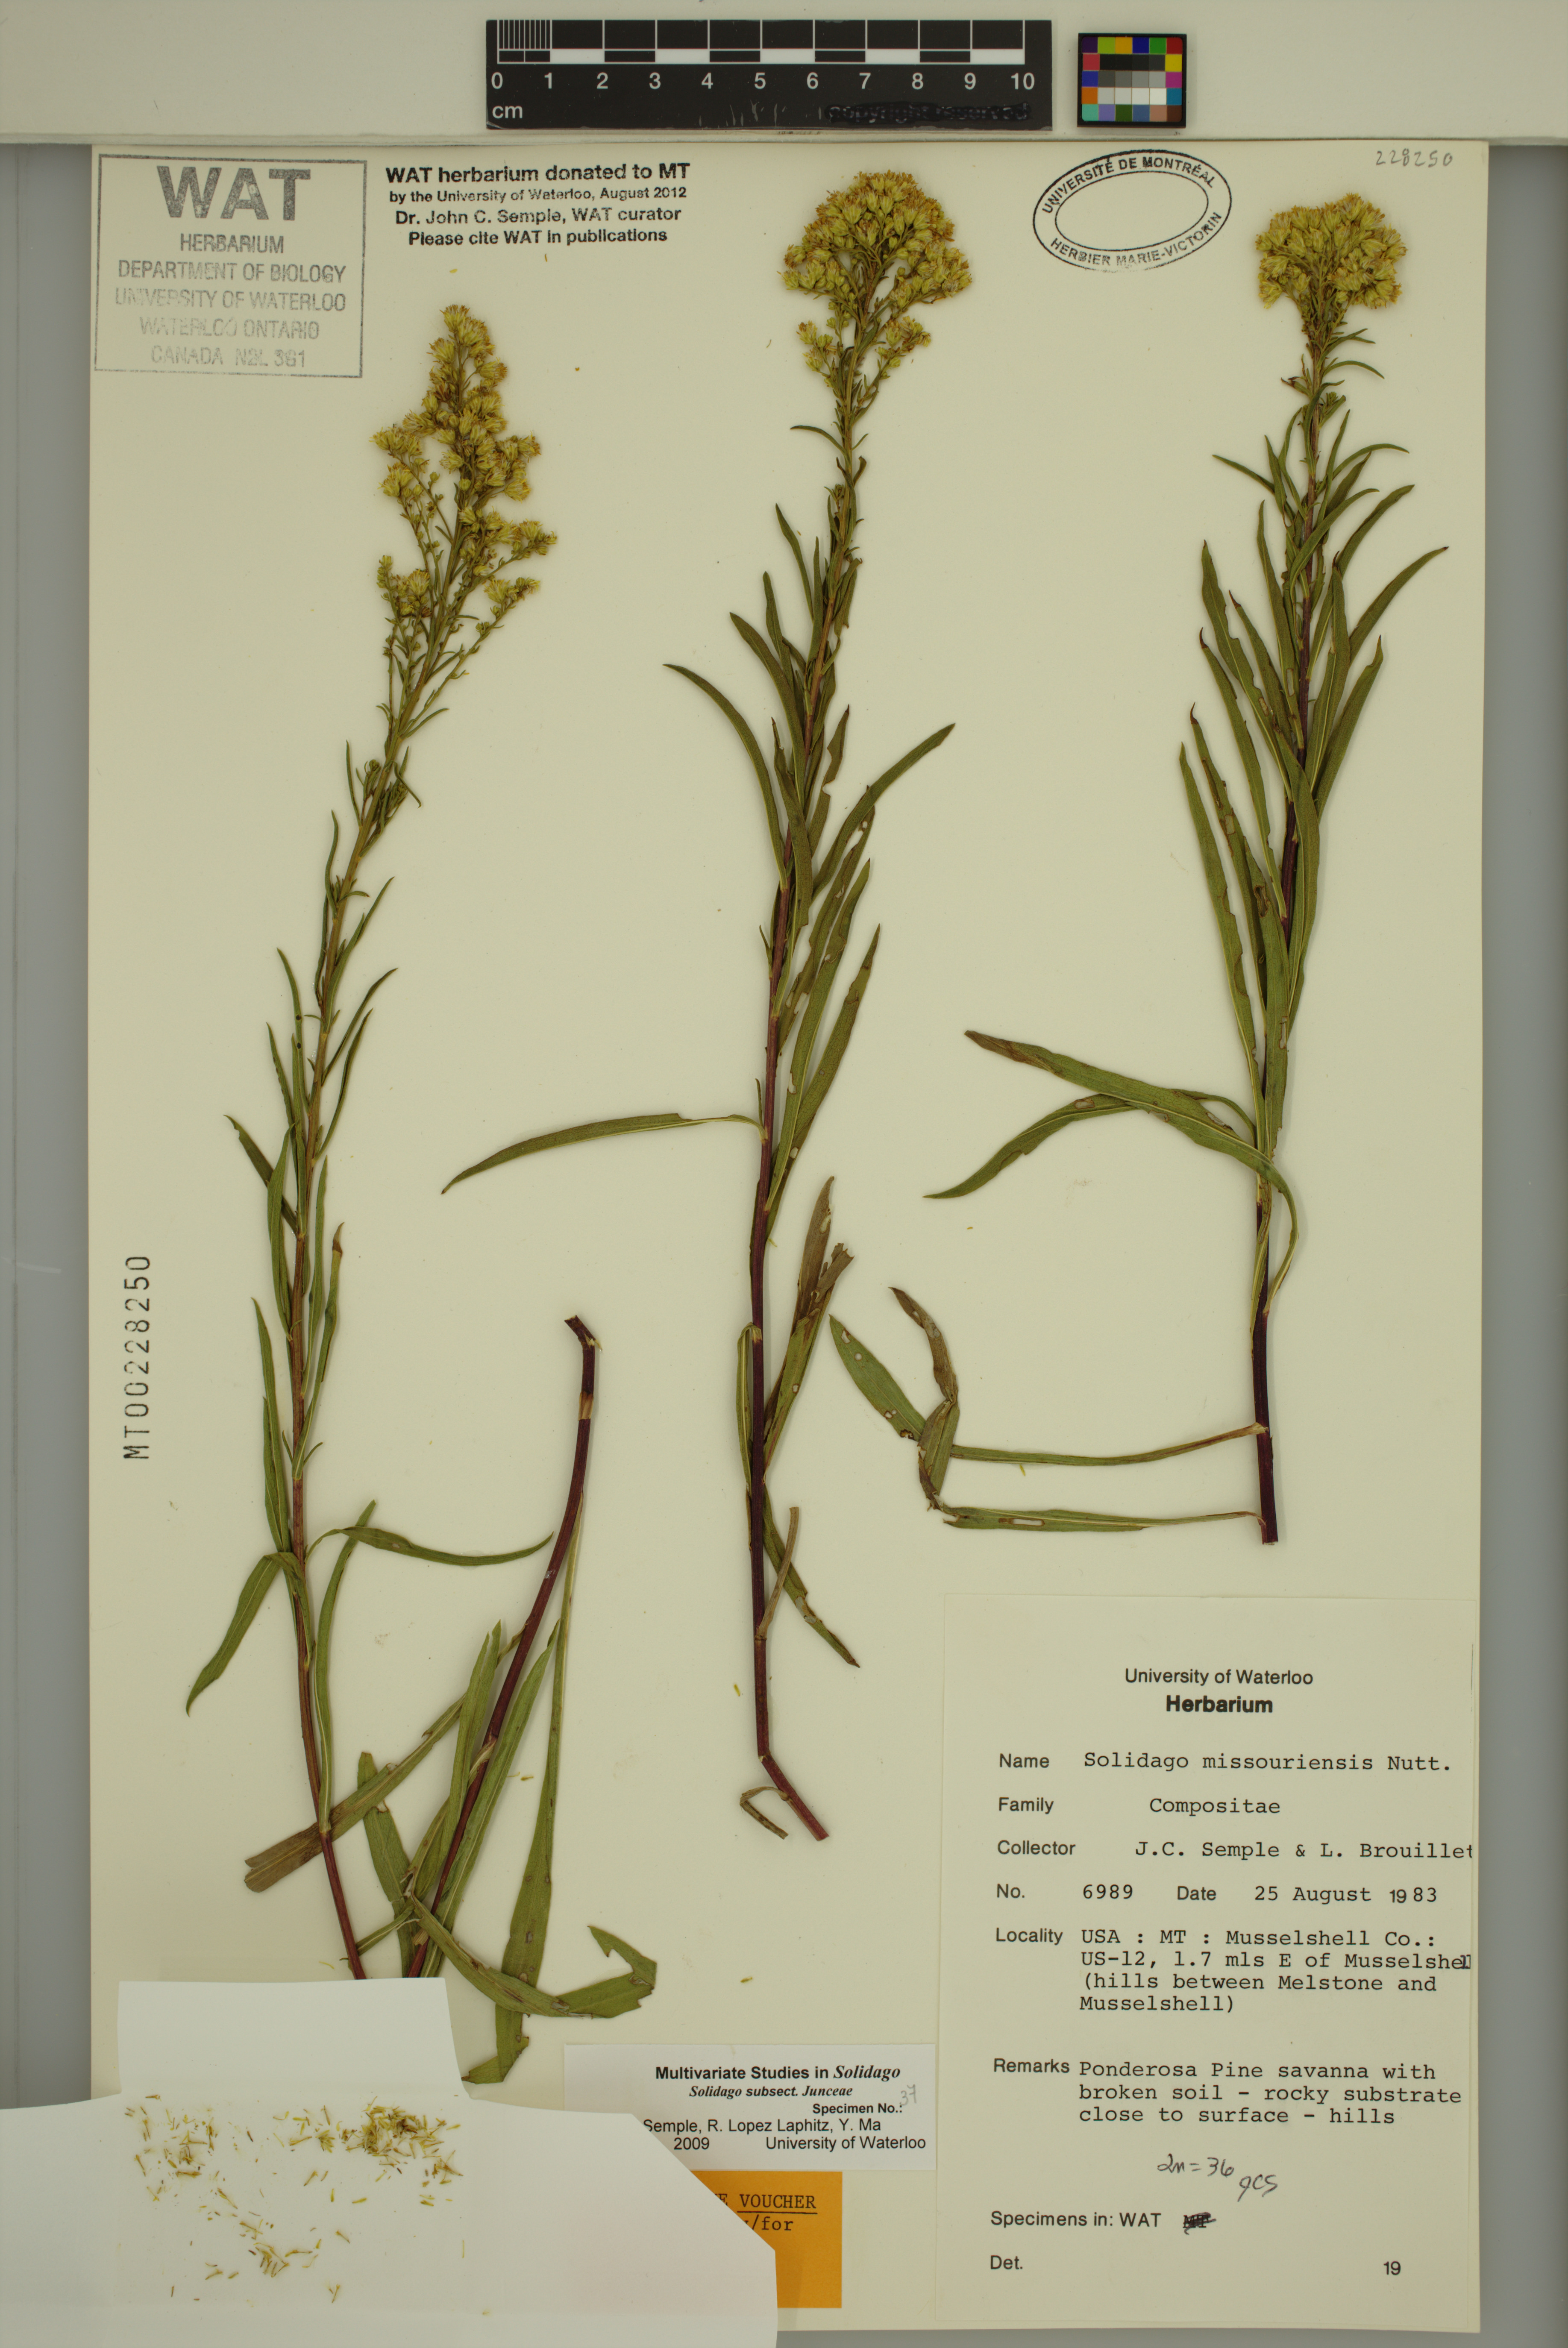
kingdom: Plantae
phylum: Tracheophyta
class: Magnoliopsida
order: Asterales
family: Asteraceae
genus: Solidago
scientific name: Solidago missouriensis
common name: Prairie goldenrod
